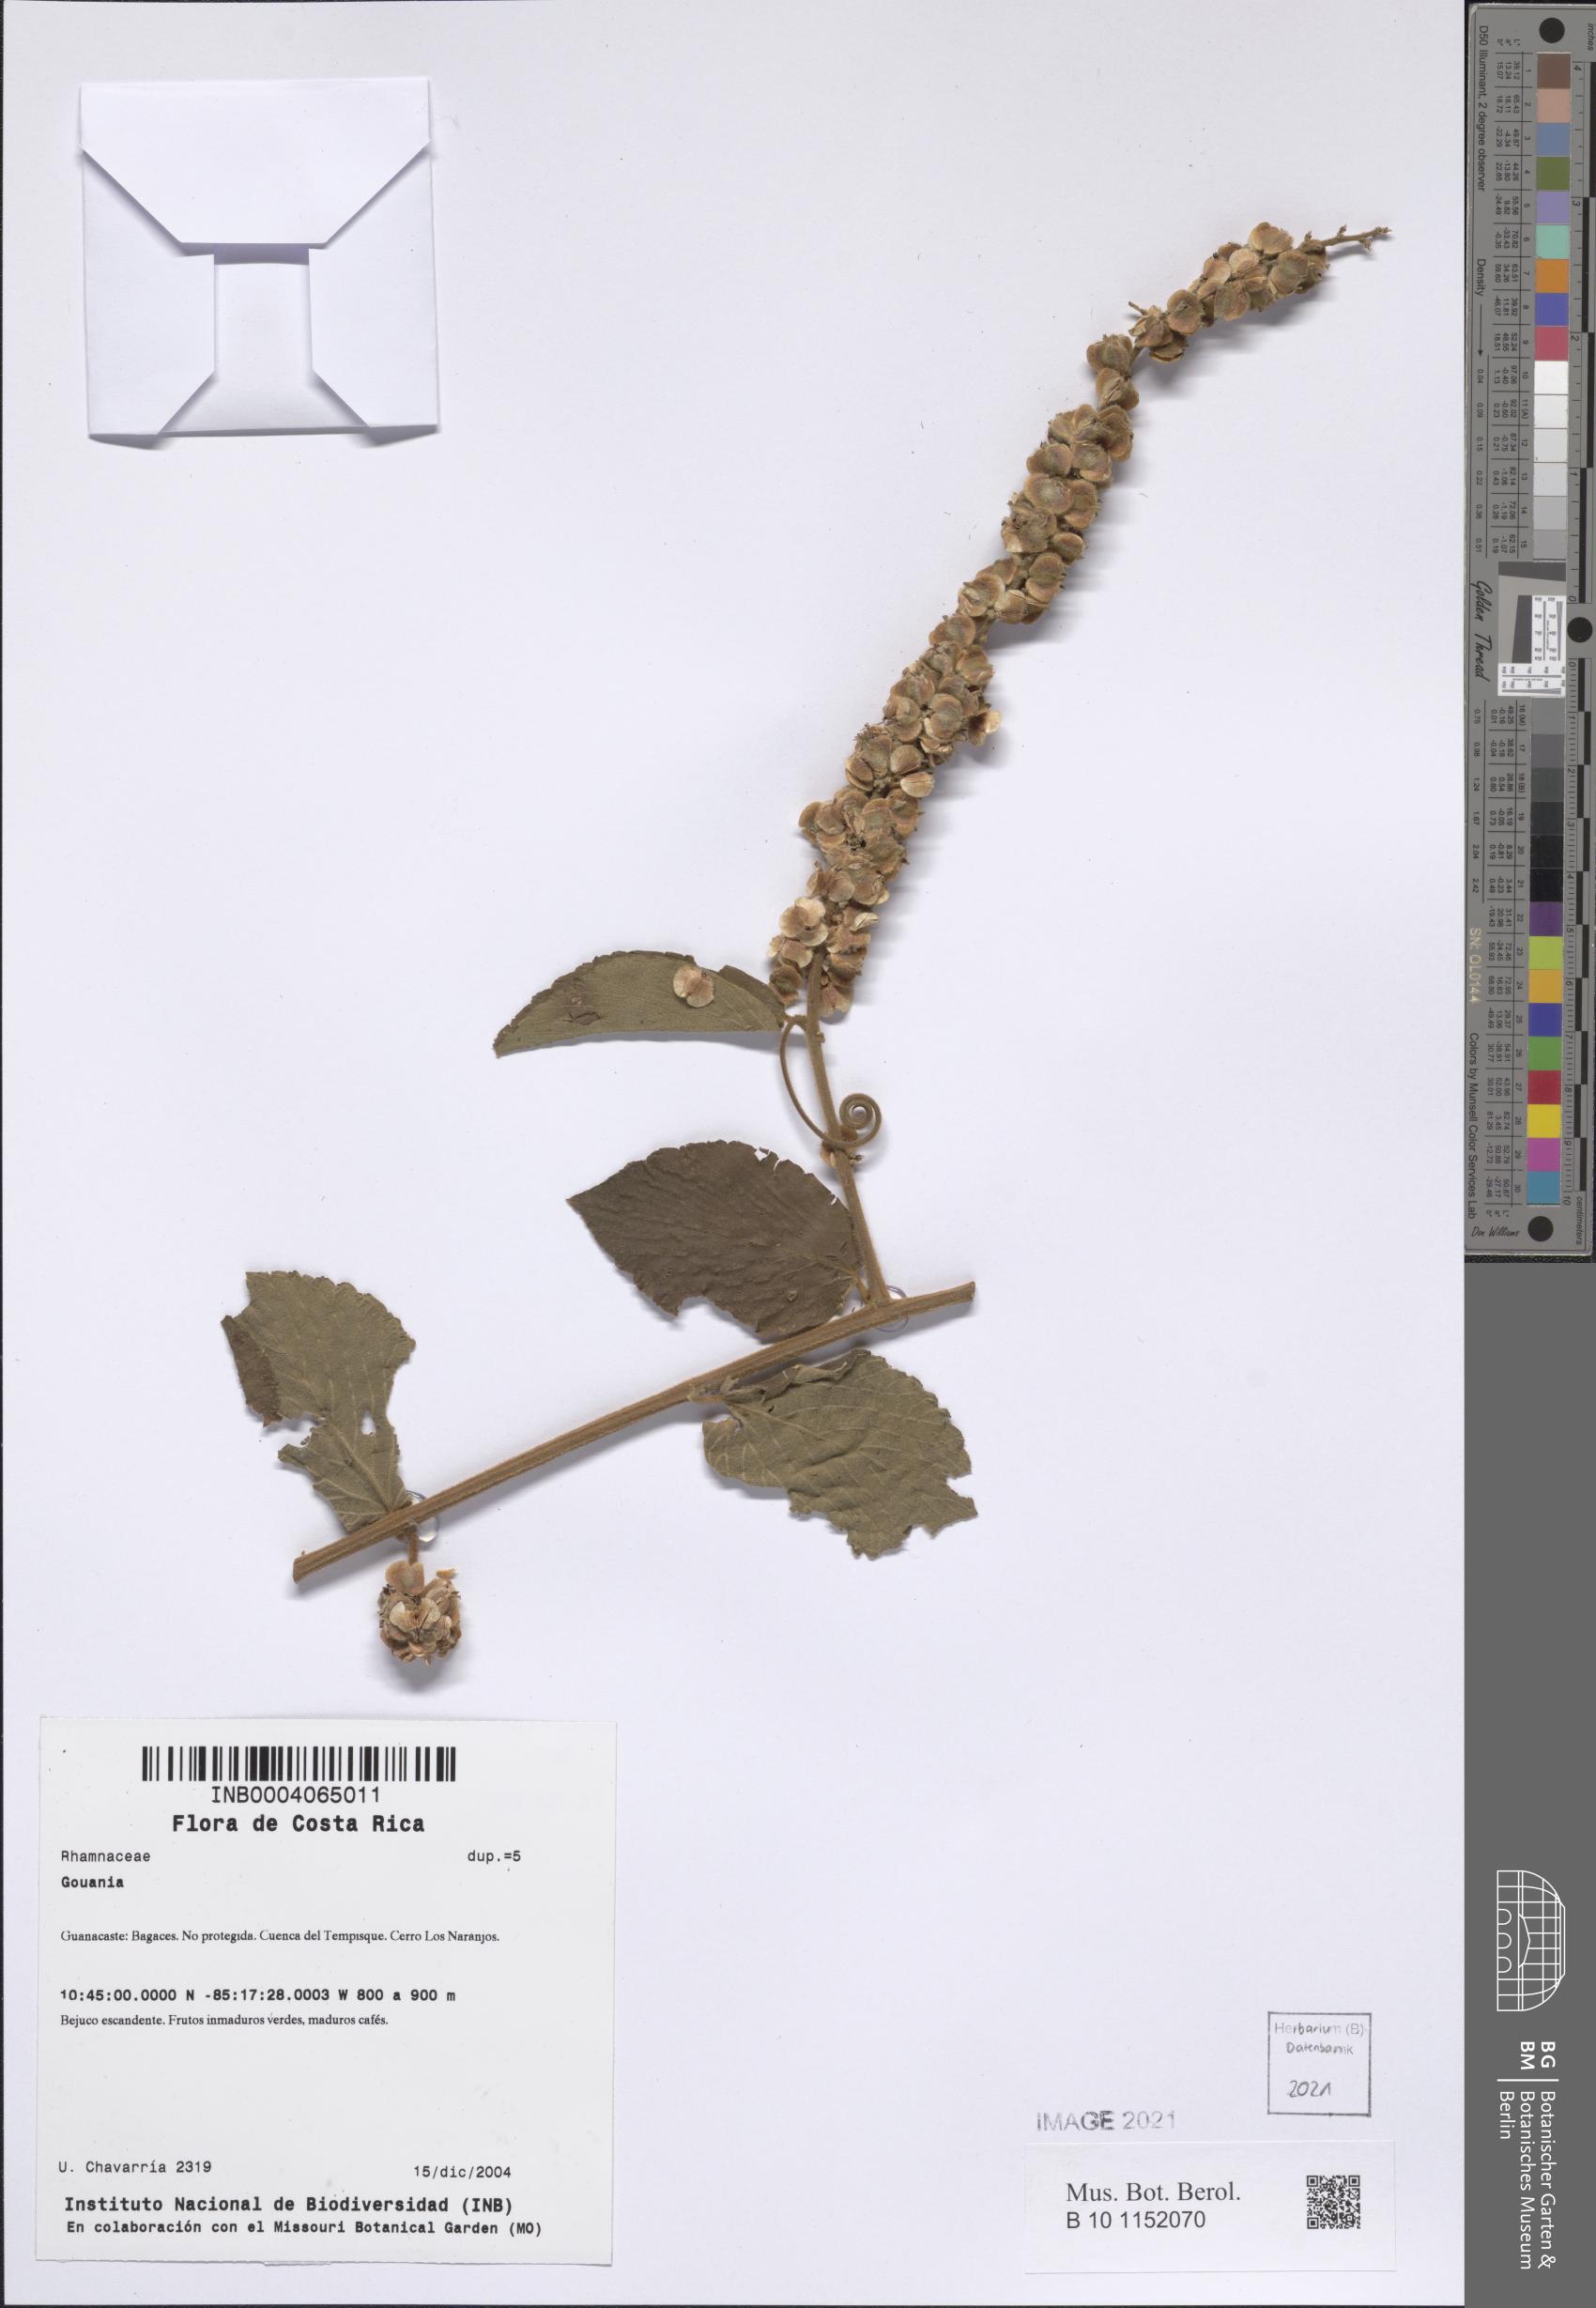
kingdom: Plantae
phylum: Tracheophyta
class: Magnoliopsida
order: Rosales
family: Rhamnaceae
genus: Gouania
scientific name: Gouania velutina
